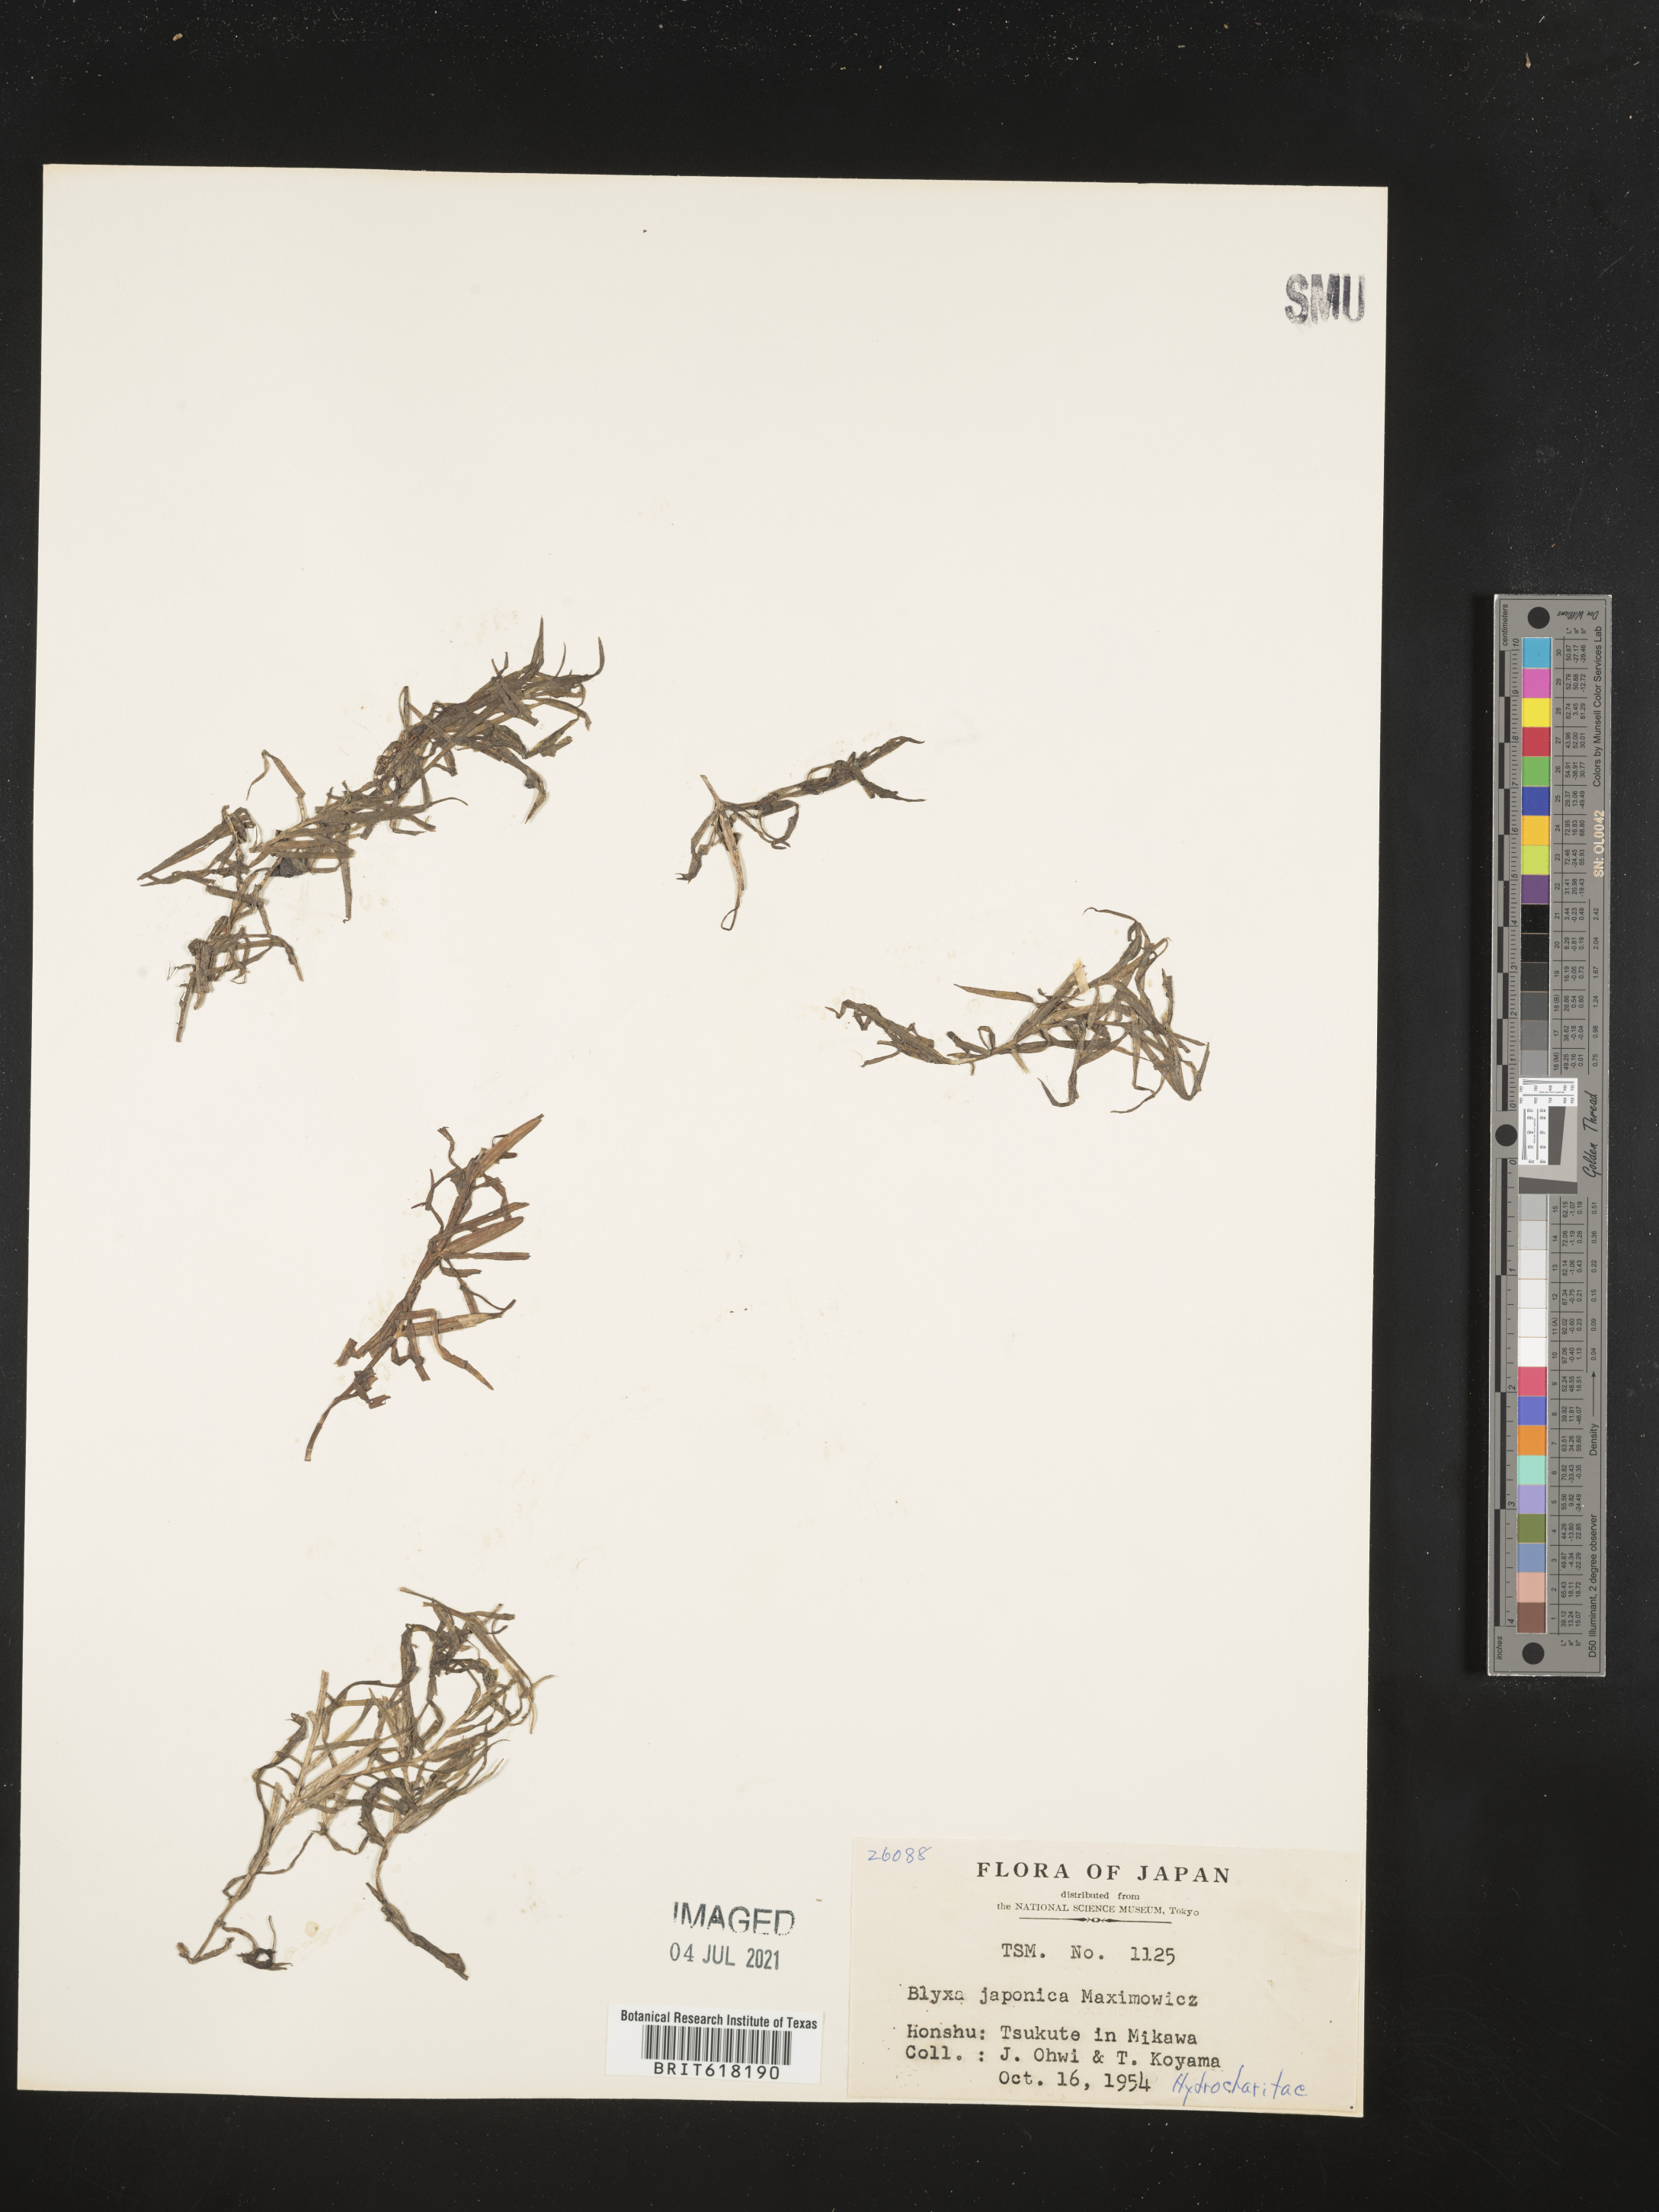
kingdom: Plantae
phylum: Tracheophyta
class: Liliopsida
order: Alismatales
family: Hydrocharitaceae
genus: Blyxa
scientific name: Blyxa japonica
